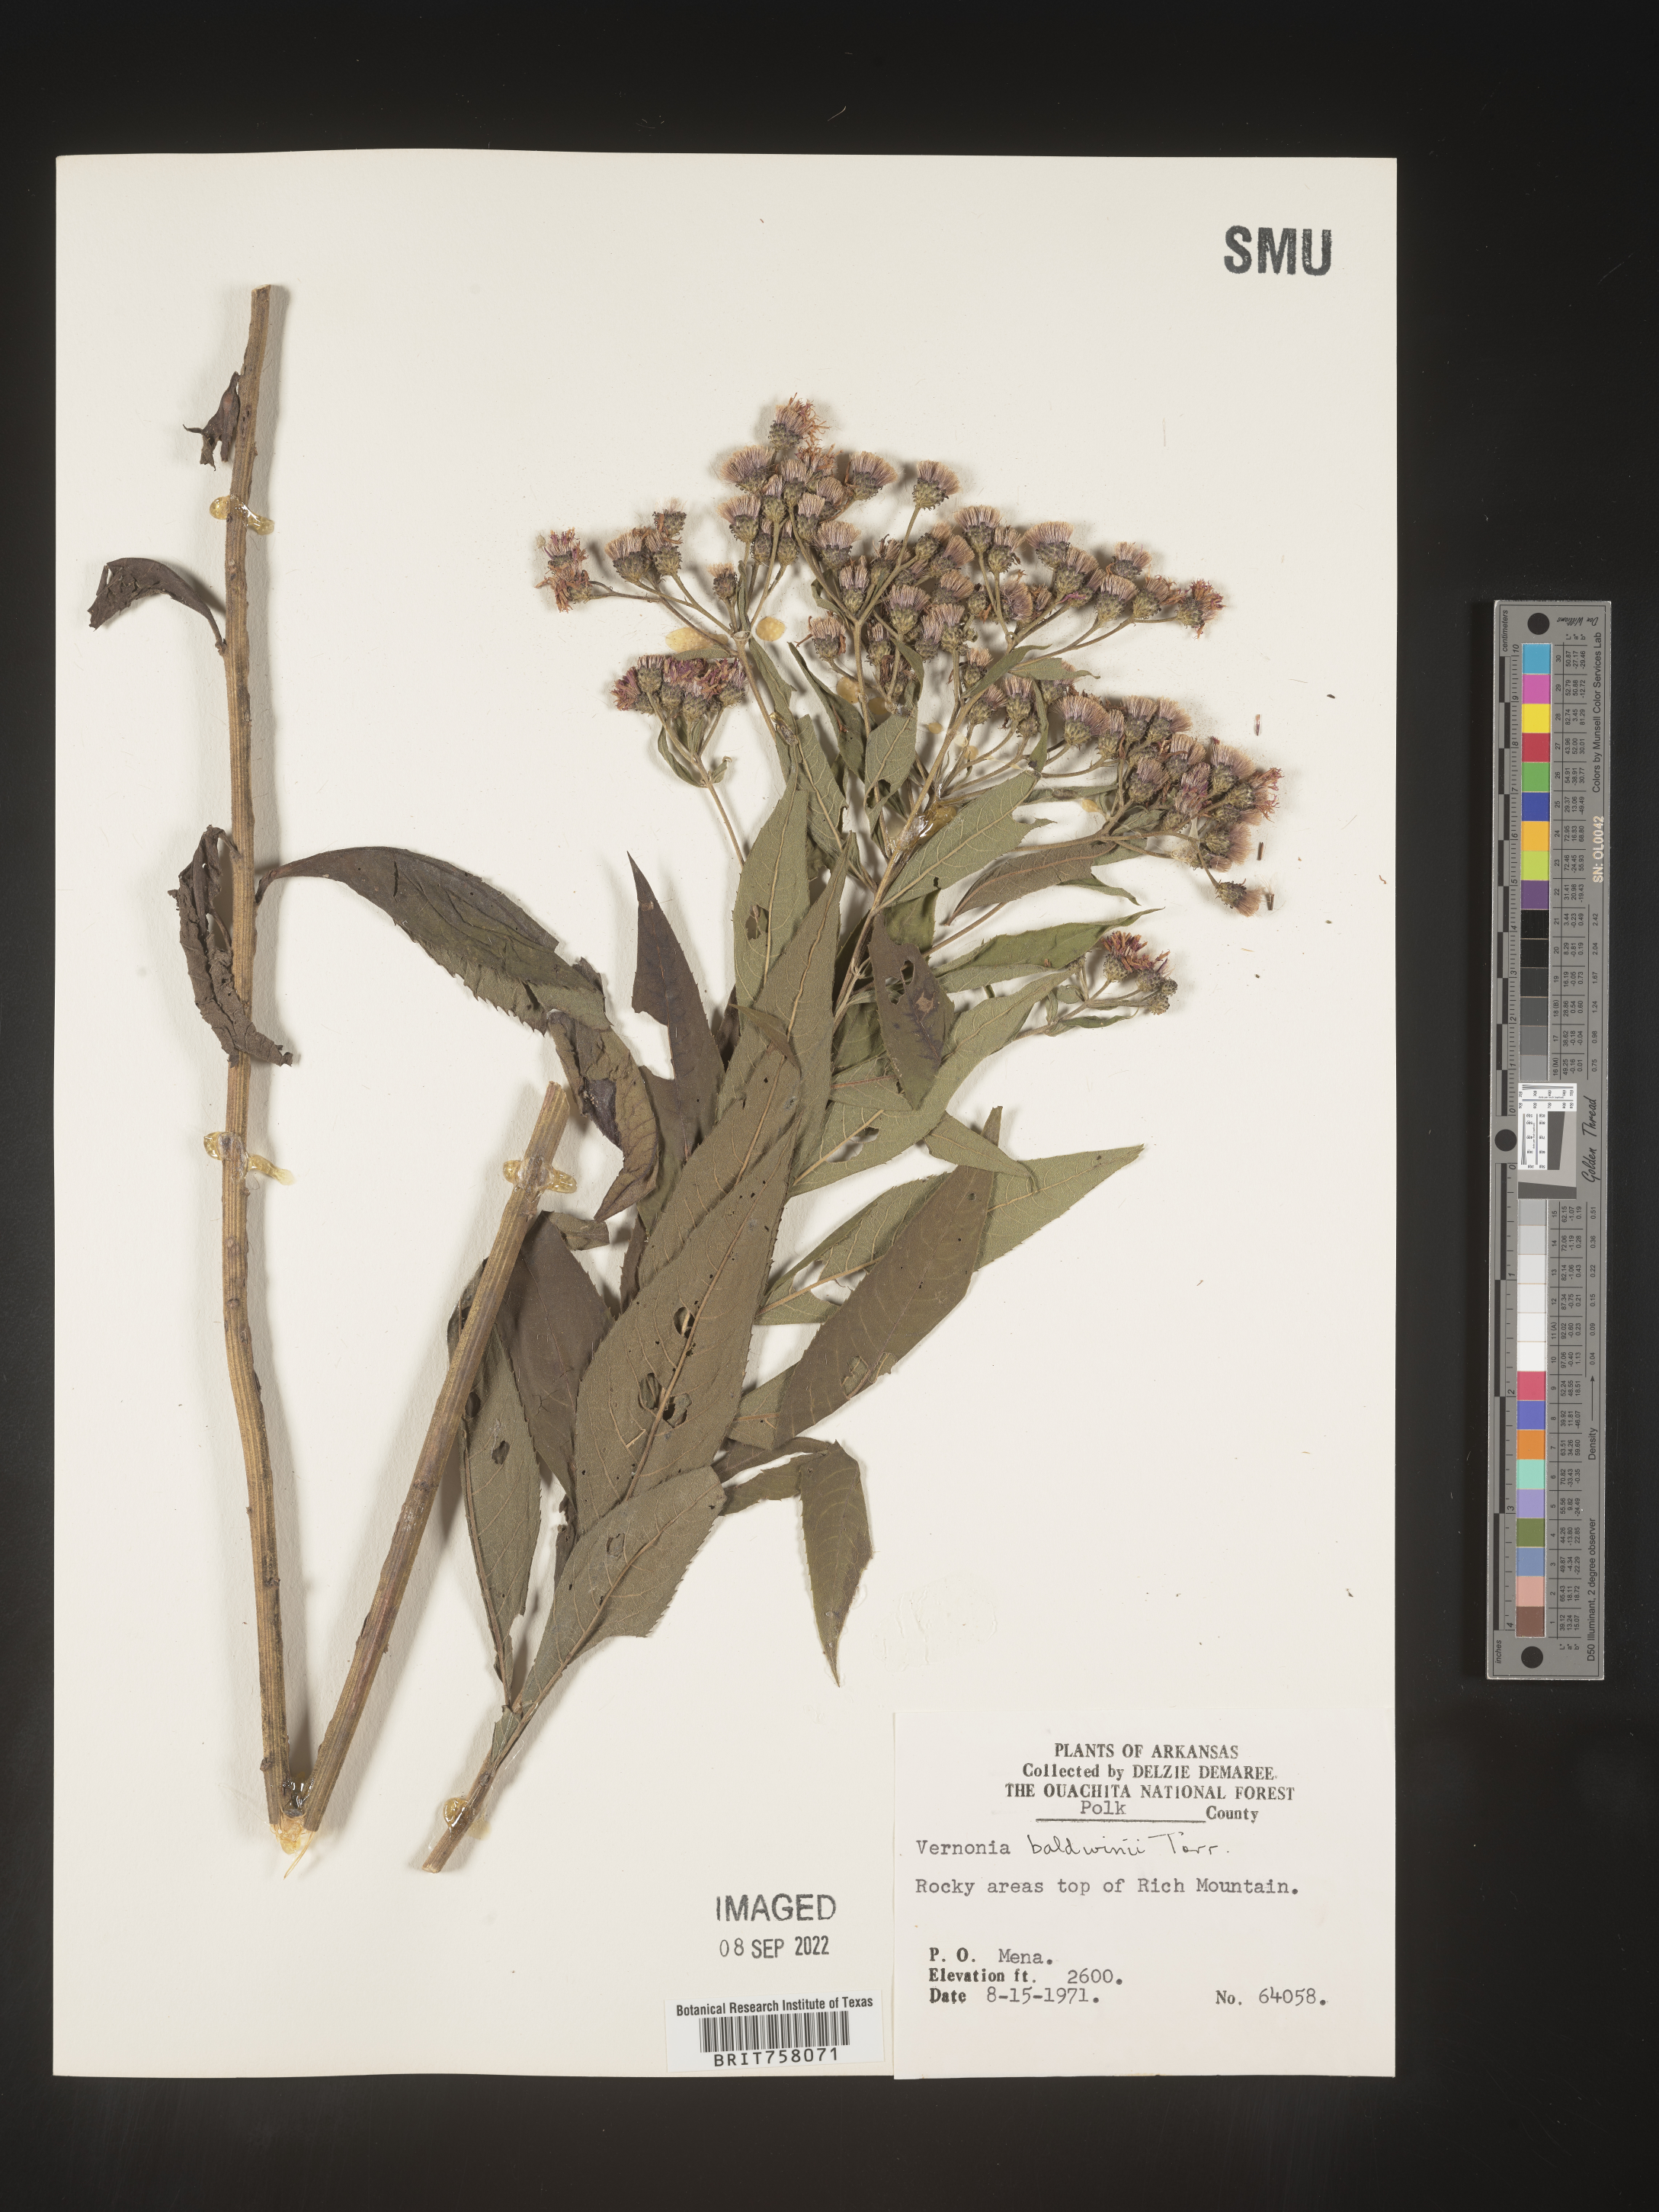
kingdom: Plantae
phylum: Tracheophyta
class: Magnoliopsida
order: Asterales
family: Asteraceae
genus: Vernonia
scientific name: Vernonia baldwinii
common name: Western ironweed
